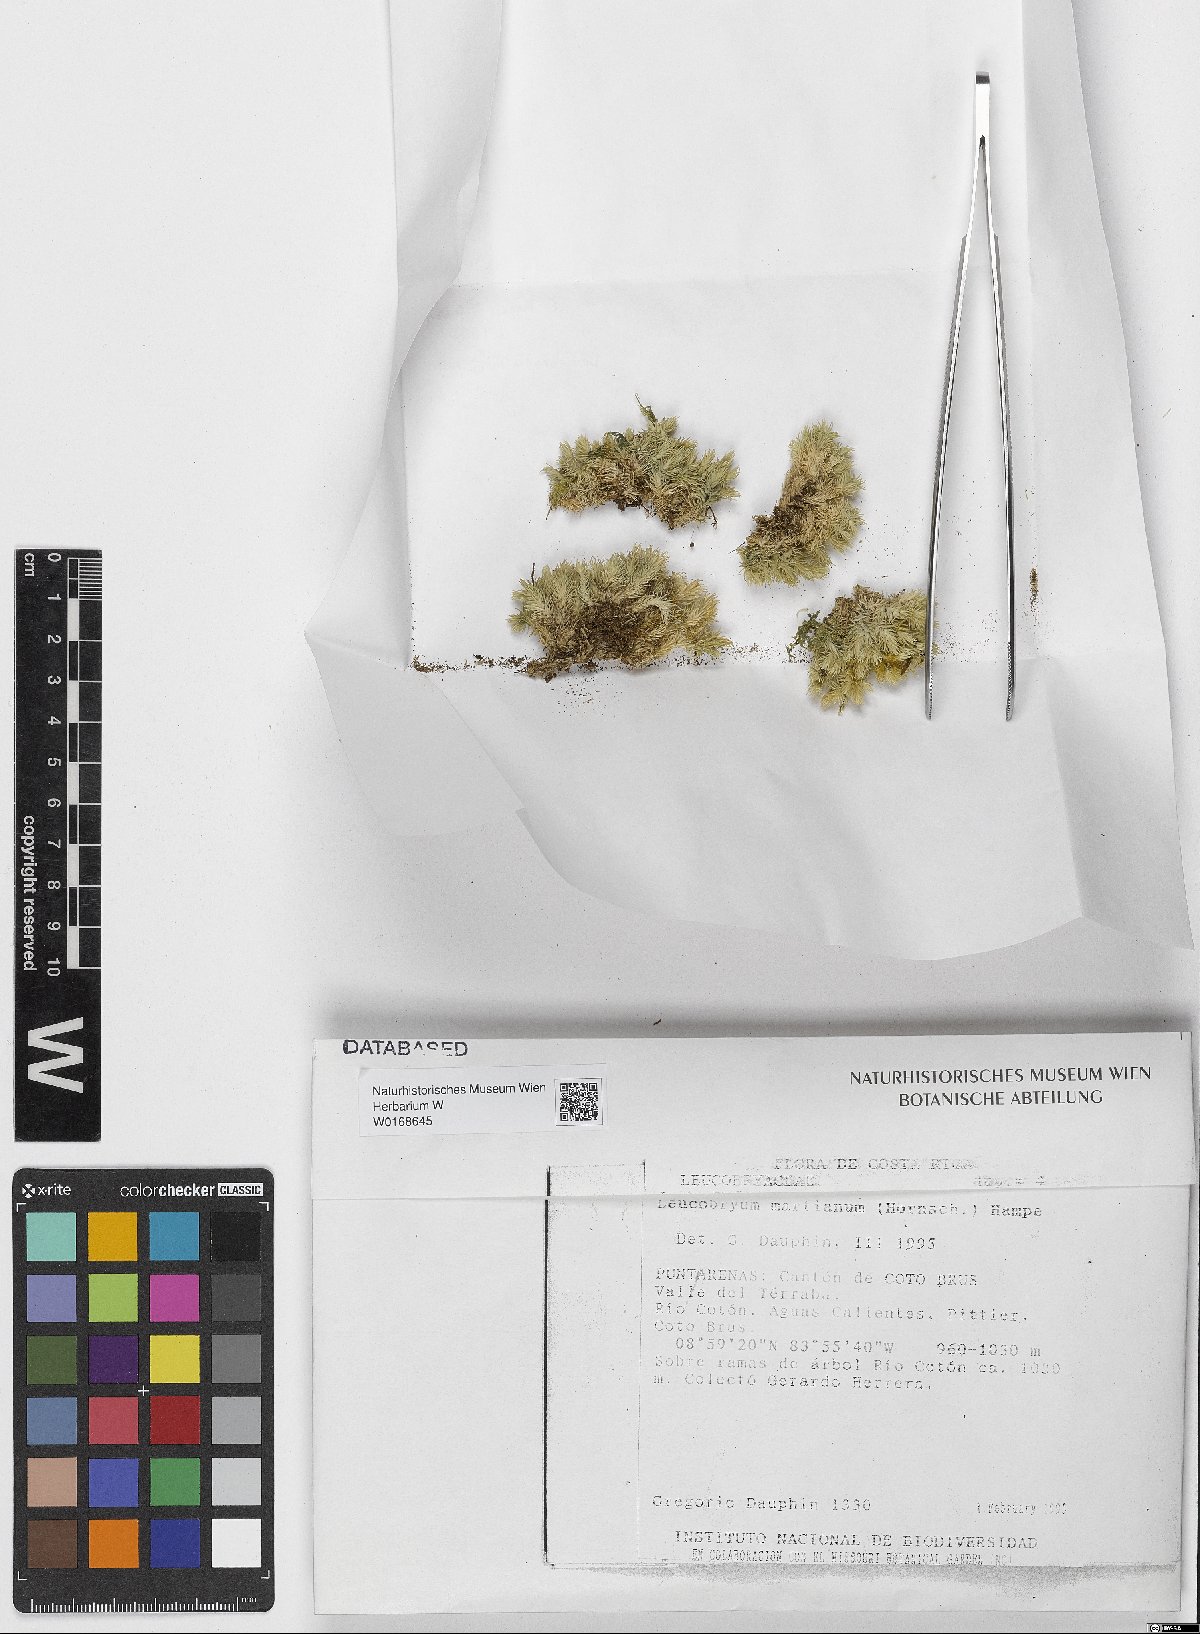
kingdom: Plantae
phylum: Bryophyta
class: Bryopsida
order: Dicranales
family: Leucobryaceae
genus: Leucobryum
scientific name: Leucobryum
